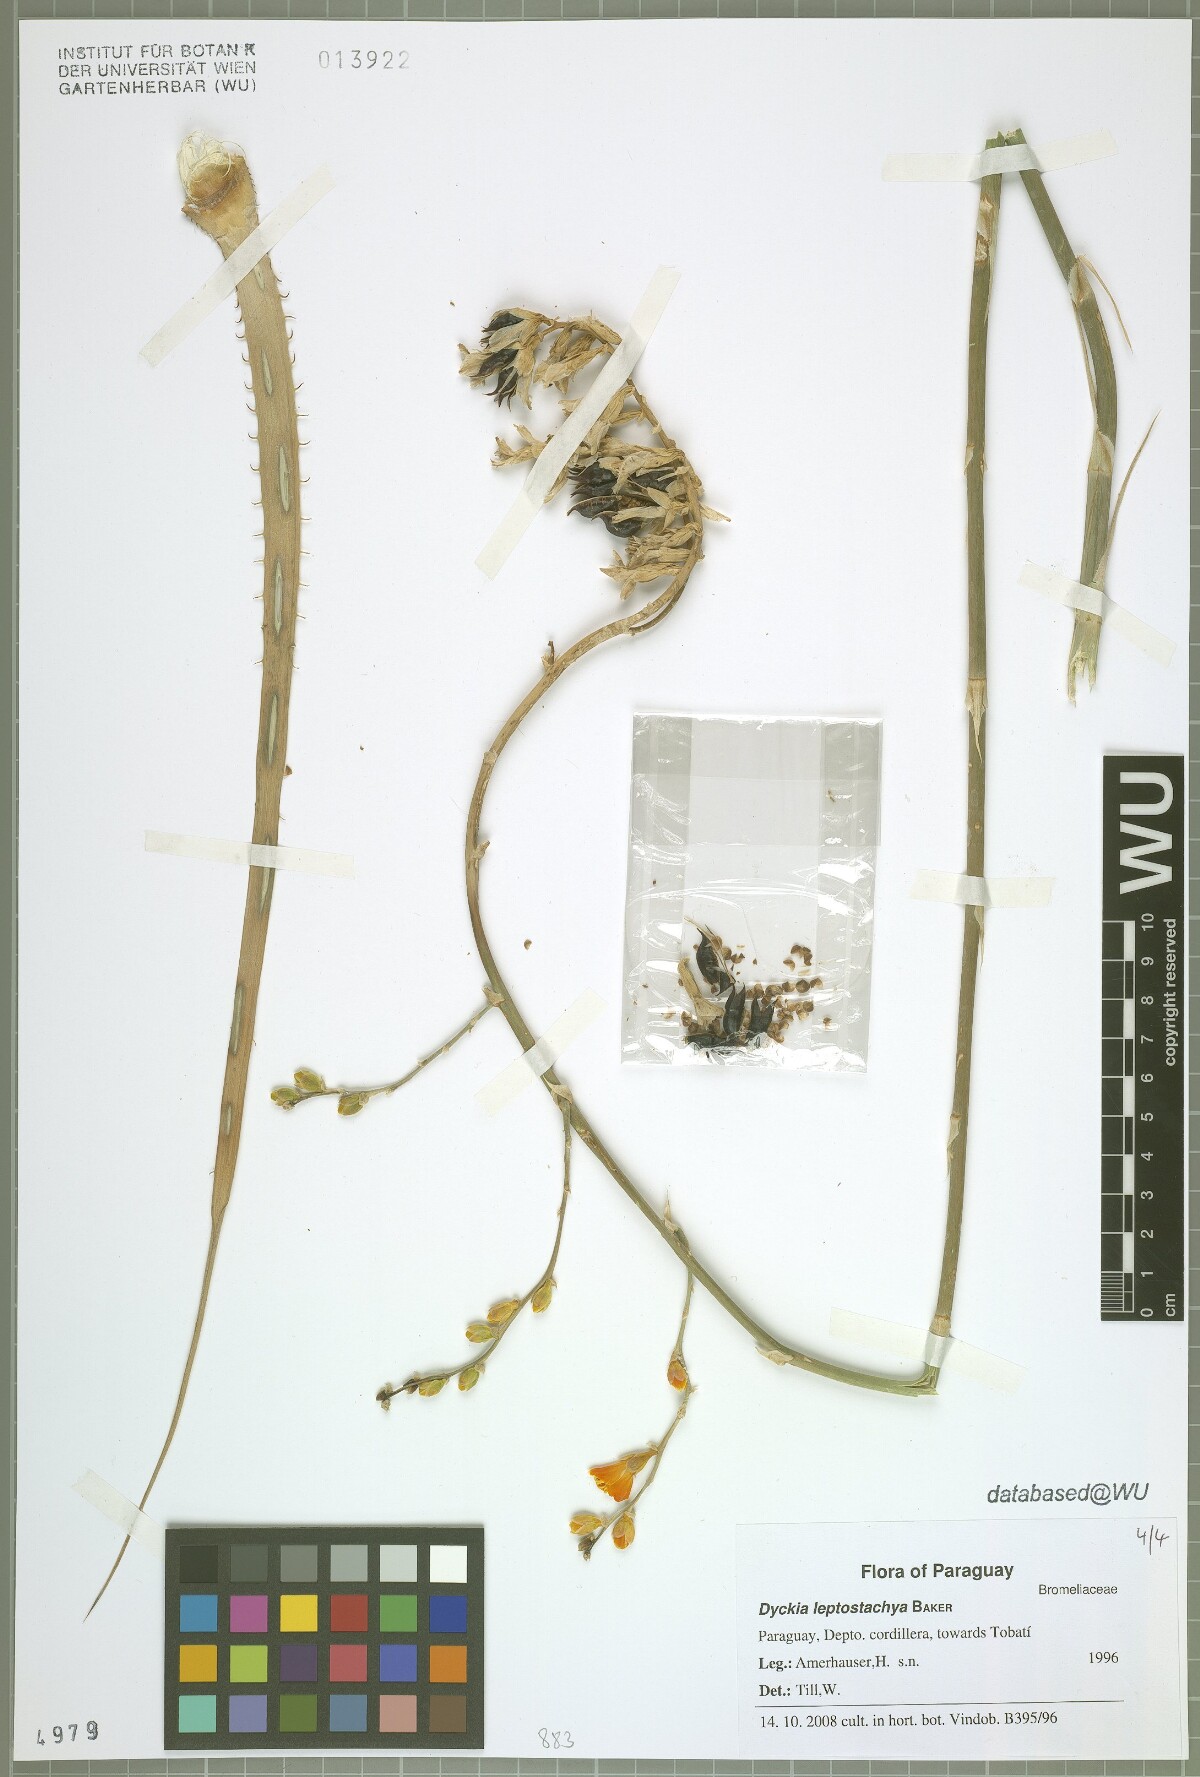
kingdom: Plantae
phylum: Tracheophyta
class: Liliopsida
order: Poales
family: Bromeliaceae
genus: Dyckia
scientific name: Dyckia leptostachya
